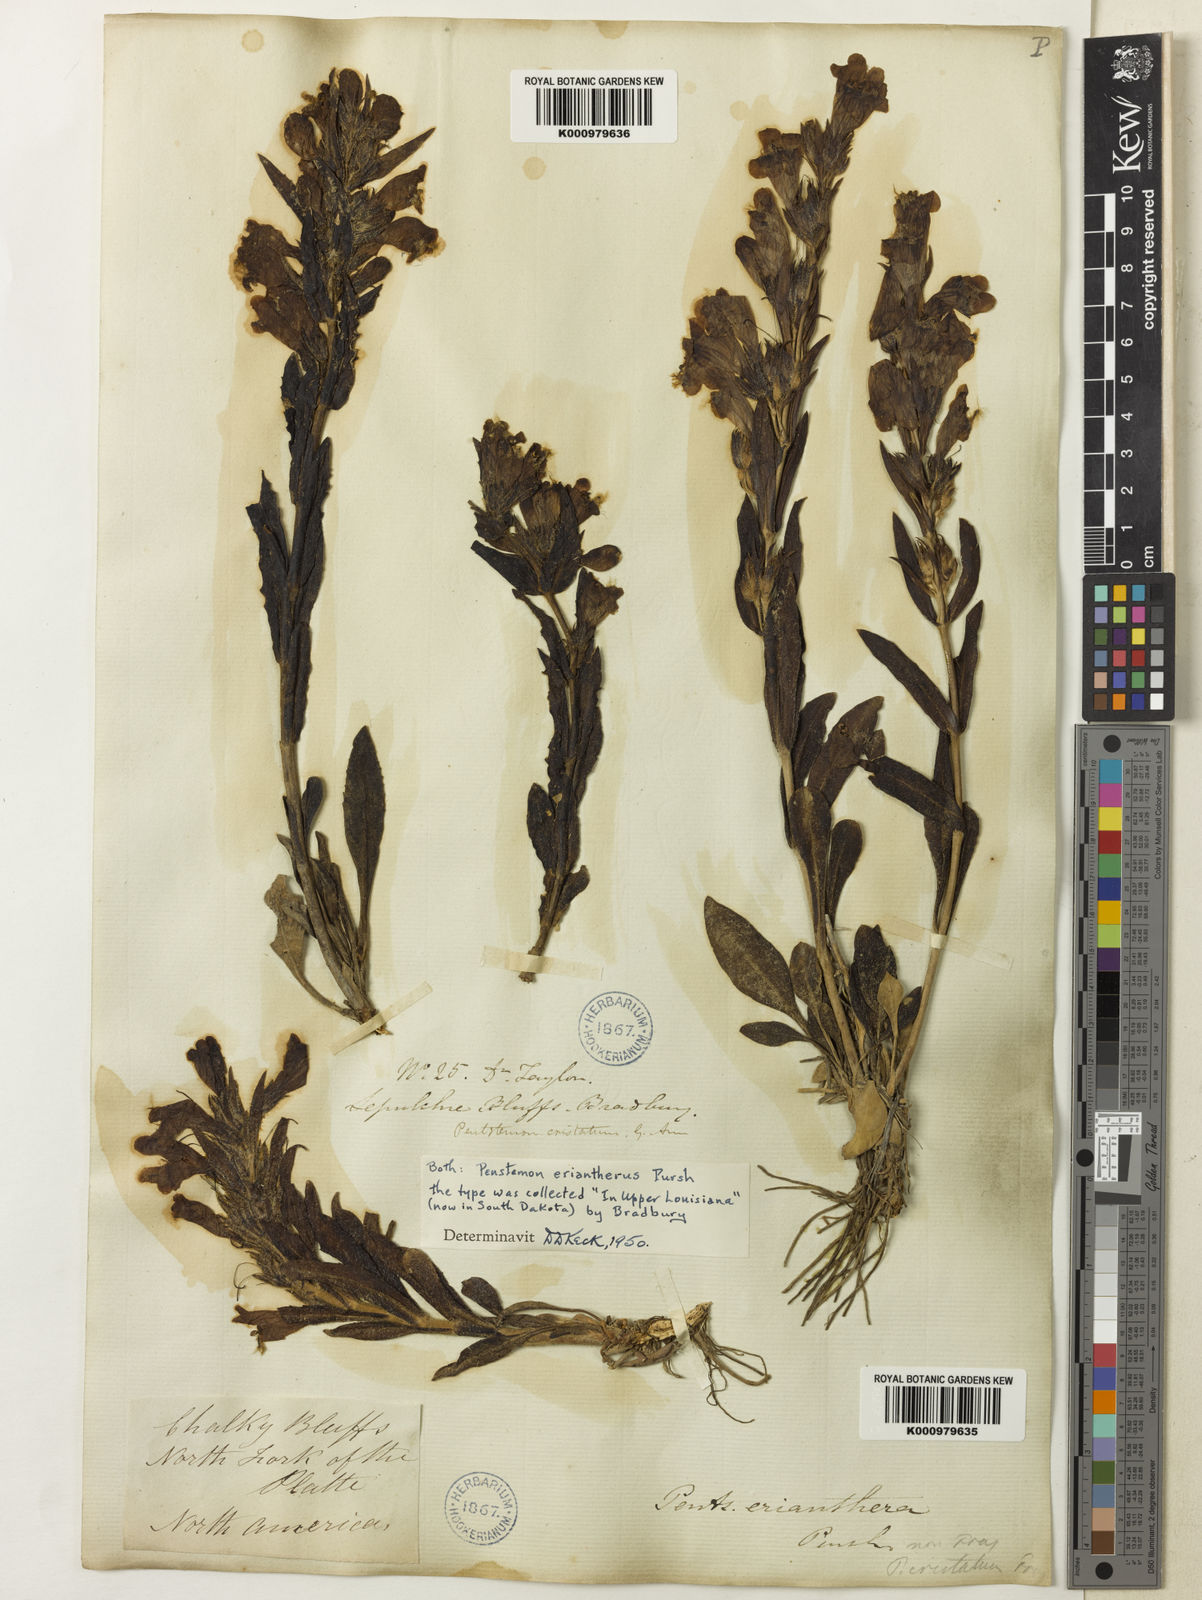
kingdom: Plantae
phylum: Tracheophyta
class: Magnoliopsida
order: Lamiales
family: Plantaginaceae
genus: Penstemon
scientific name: Penstemon
